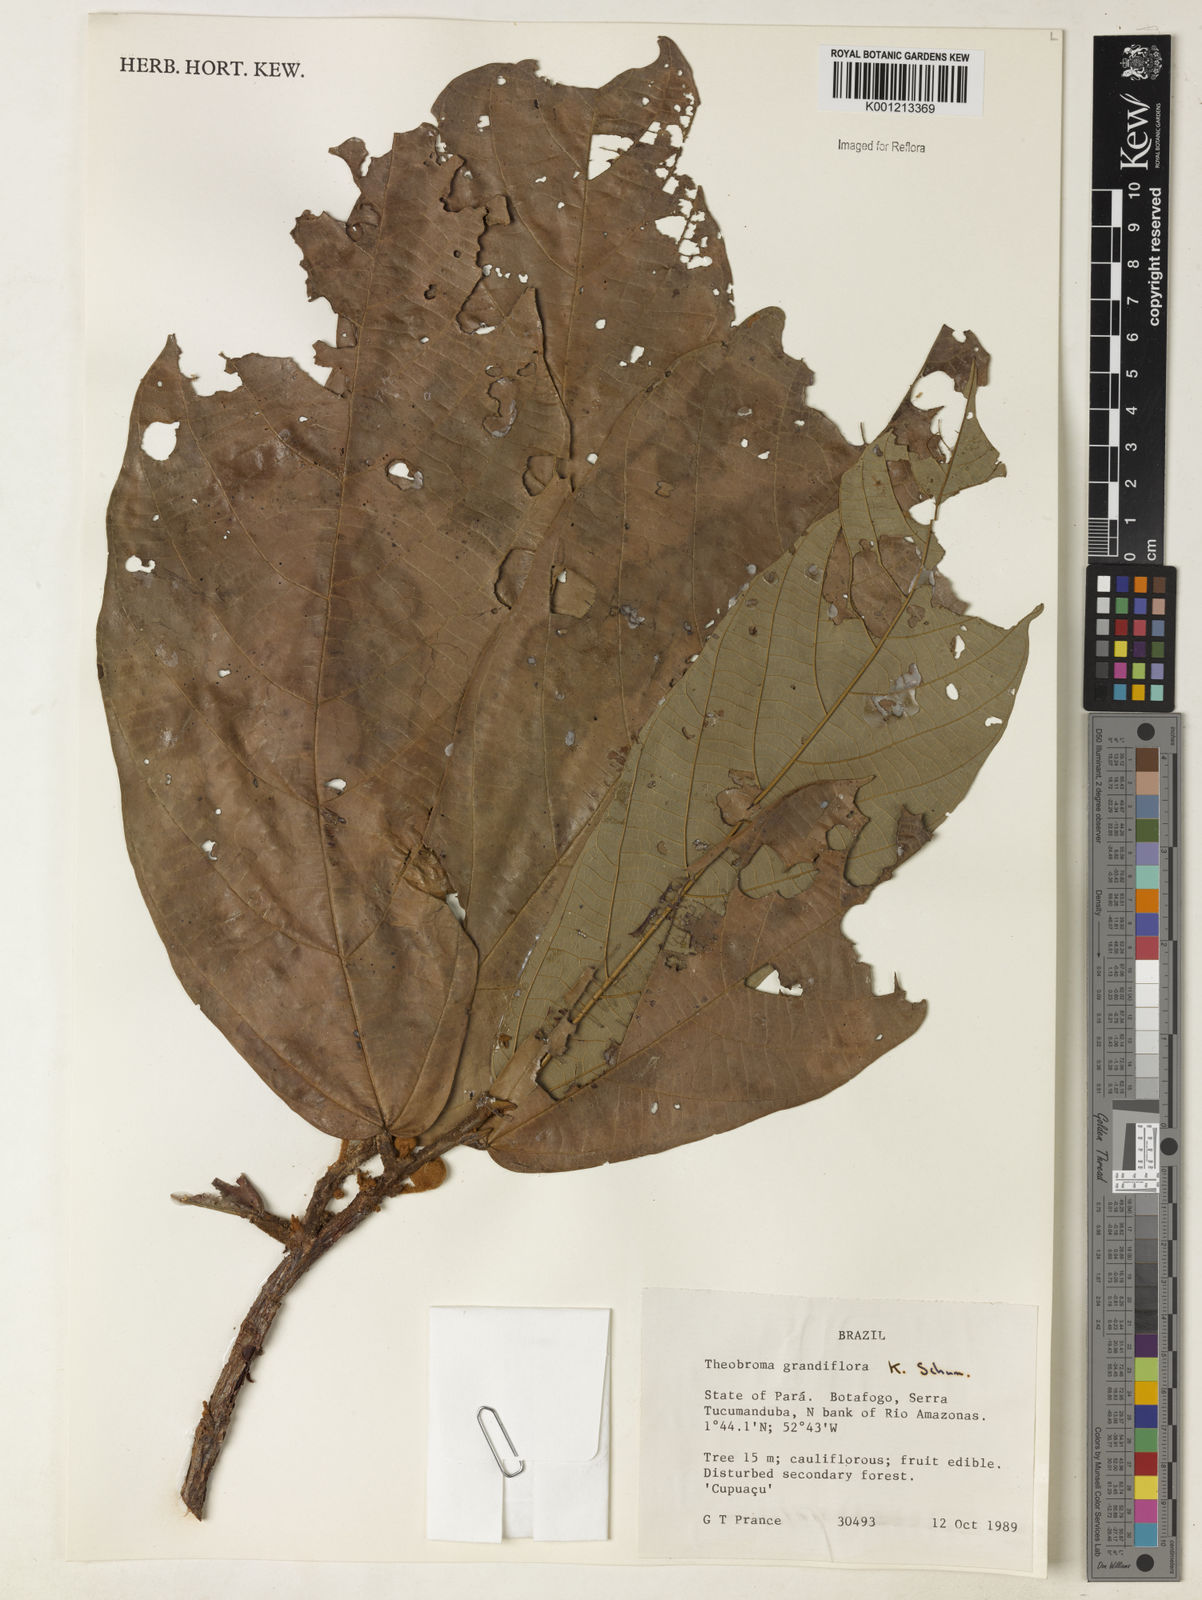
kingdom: Plantae
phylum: Tracheophyta
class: Magnoliopsida
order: Malvales
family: Malvaceae
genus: Theobroma
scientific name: Theobroma grandiflorum
